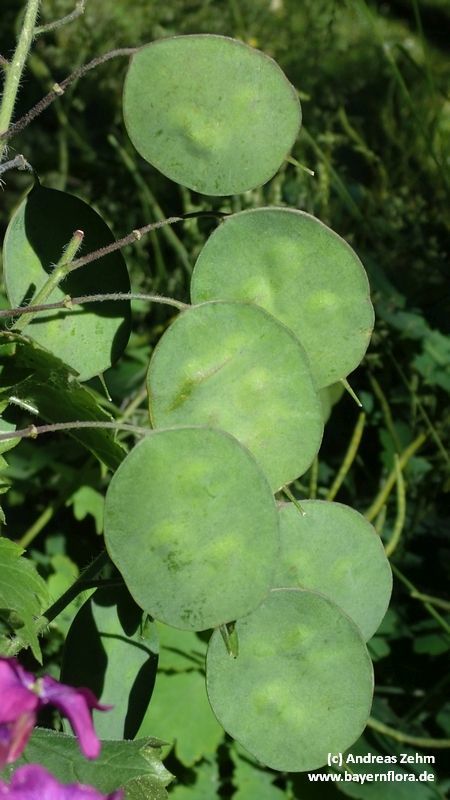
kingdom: Plantae
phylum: Tracheophyta
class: Magnoliopsida
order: Brassicales
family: Brassicaceae
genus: Lunaria
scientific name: Lunaria annua
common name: Honesty
